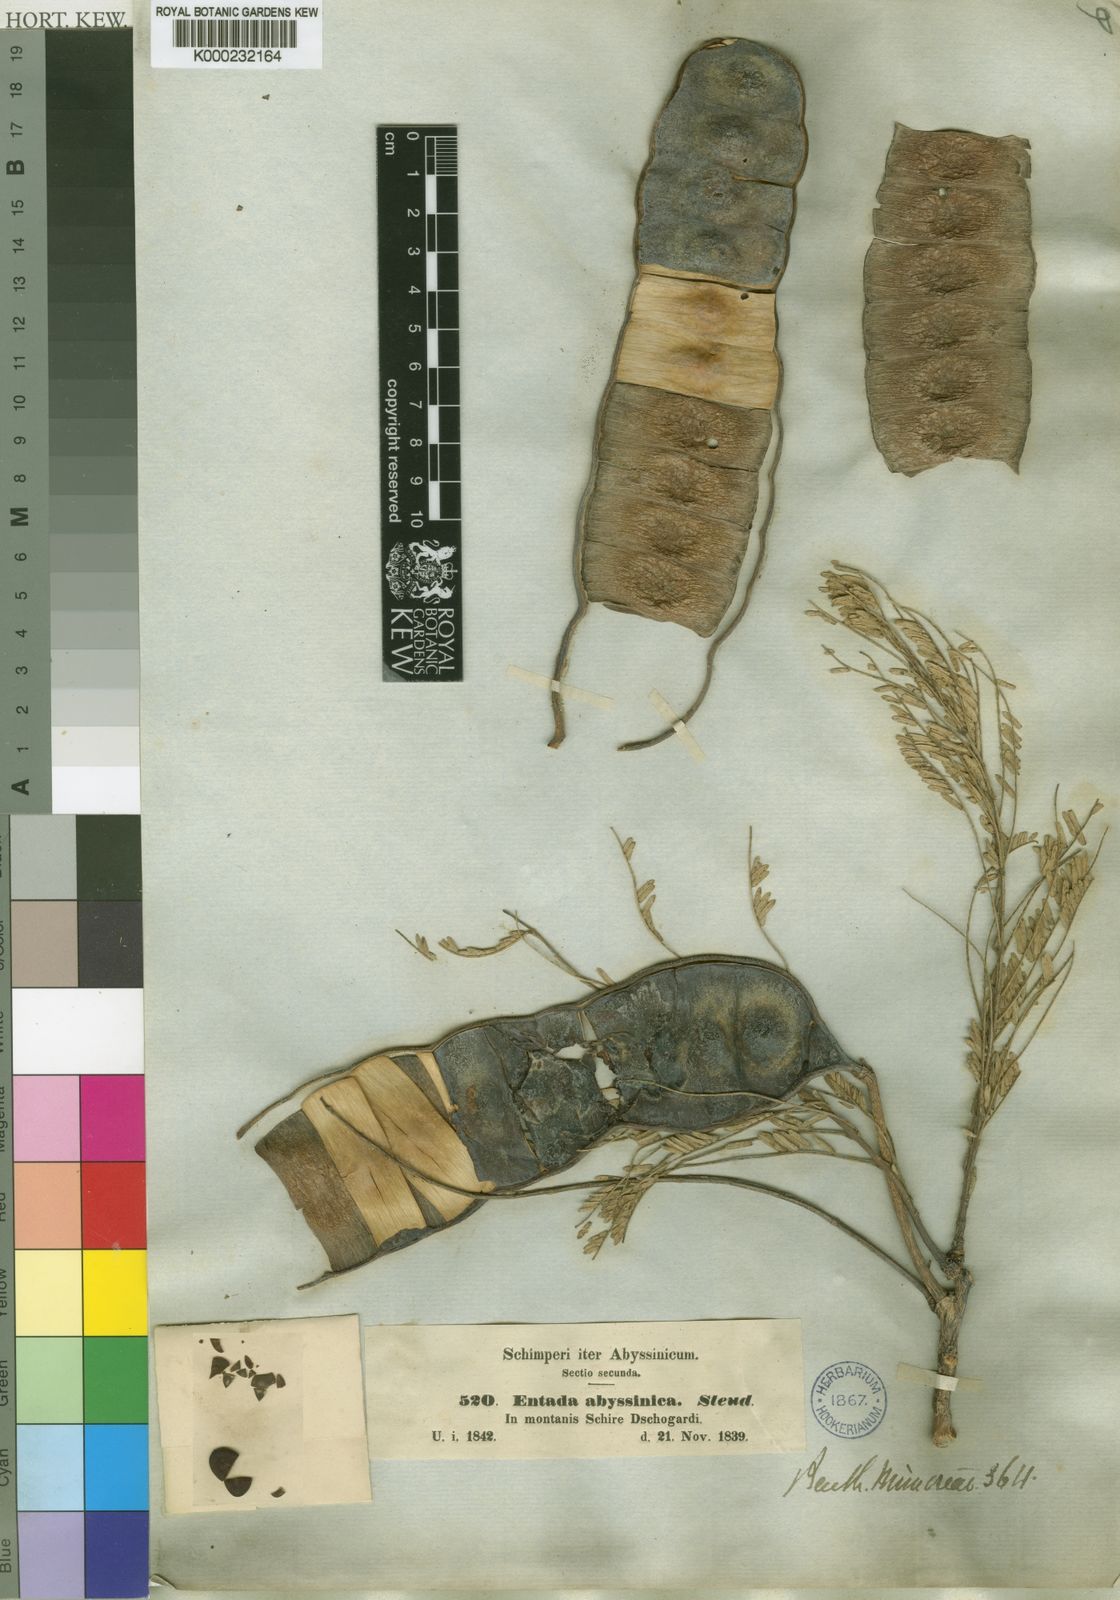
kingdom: Plantae
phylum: Tracheophyta
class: Magnoliopsida
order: Fabales
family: Fabaceae
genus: Entada
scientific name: Entada abyssinica
